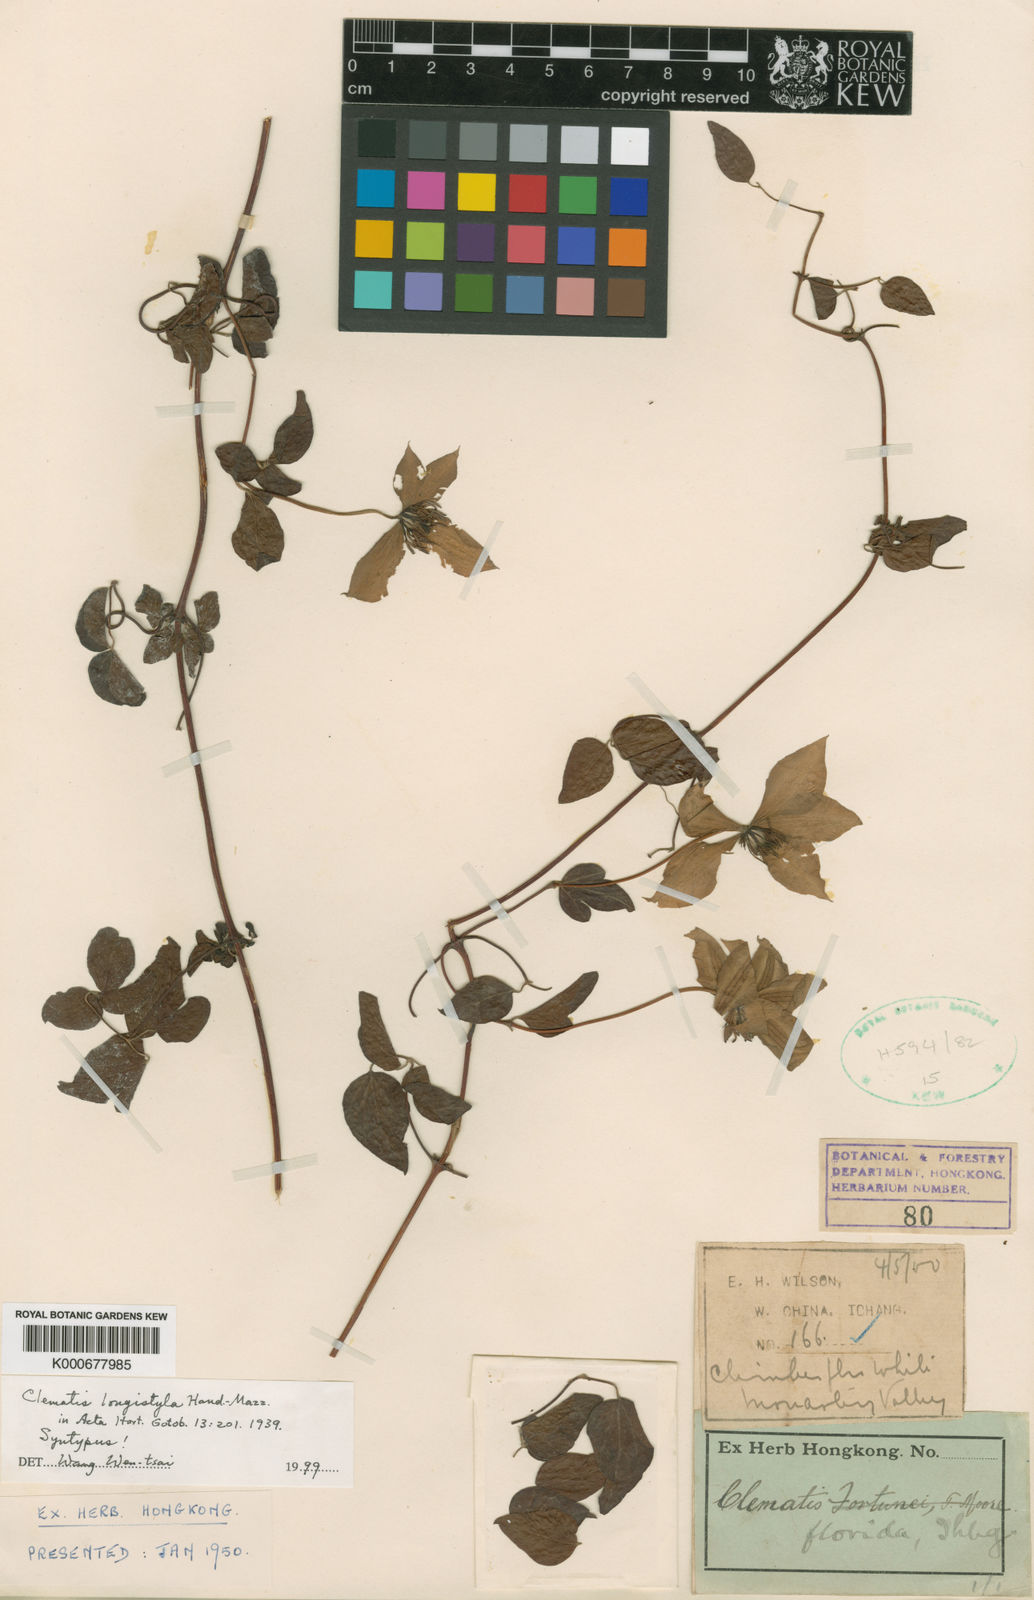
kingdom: Plantae
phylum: Tracheophyta
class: Magnoliopsida
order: Ranunculales
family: Ranunculaceae
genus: Clematis
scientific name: Clematis longistyla
